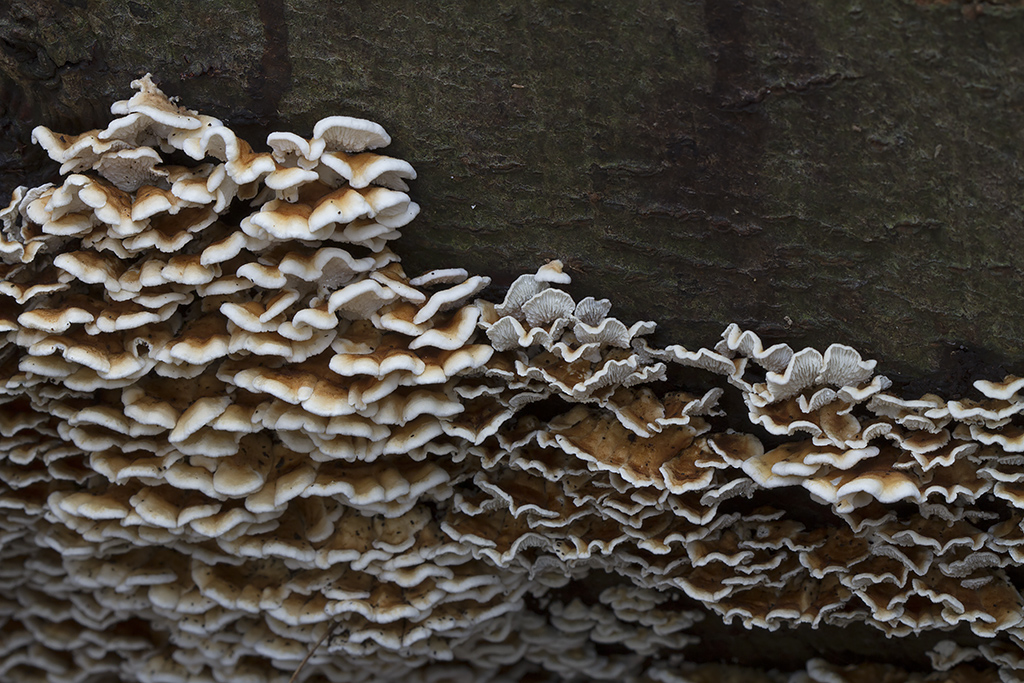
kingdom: Fungi
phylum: Basidiomycota
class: Agaricomycetes
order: Amylocorticiales
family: Amylocorticiaceae
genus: Plicaturopsis
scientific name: Plicaturopsis crispa
